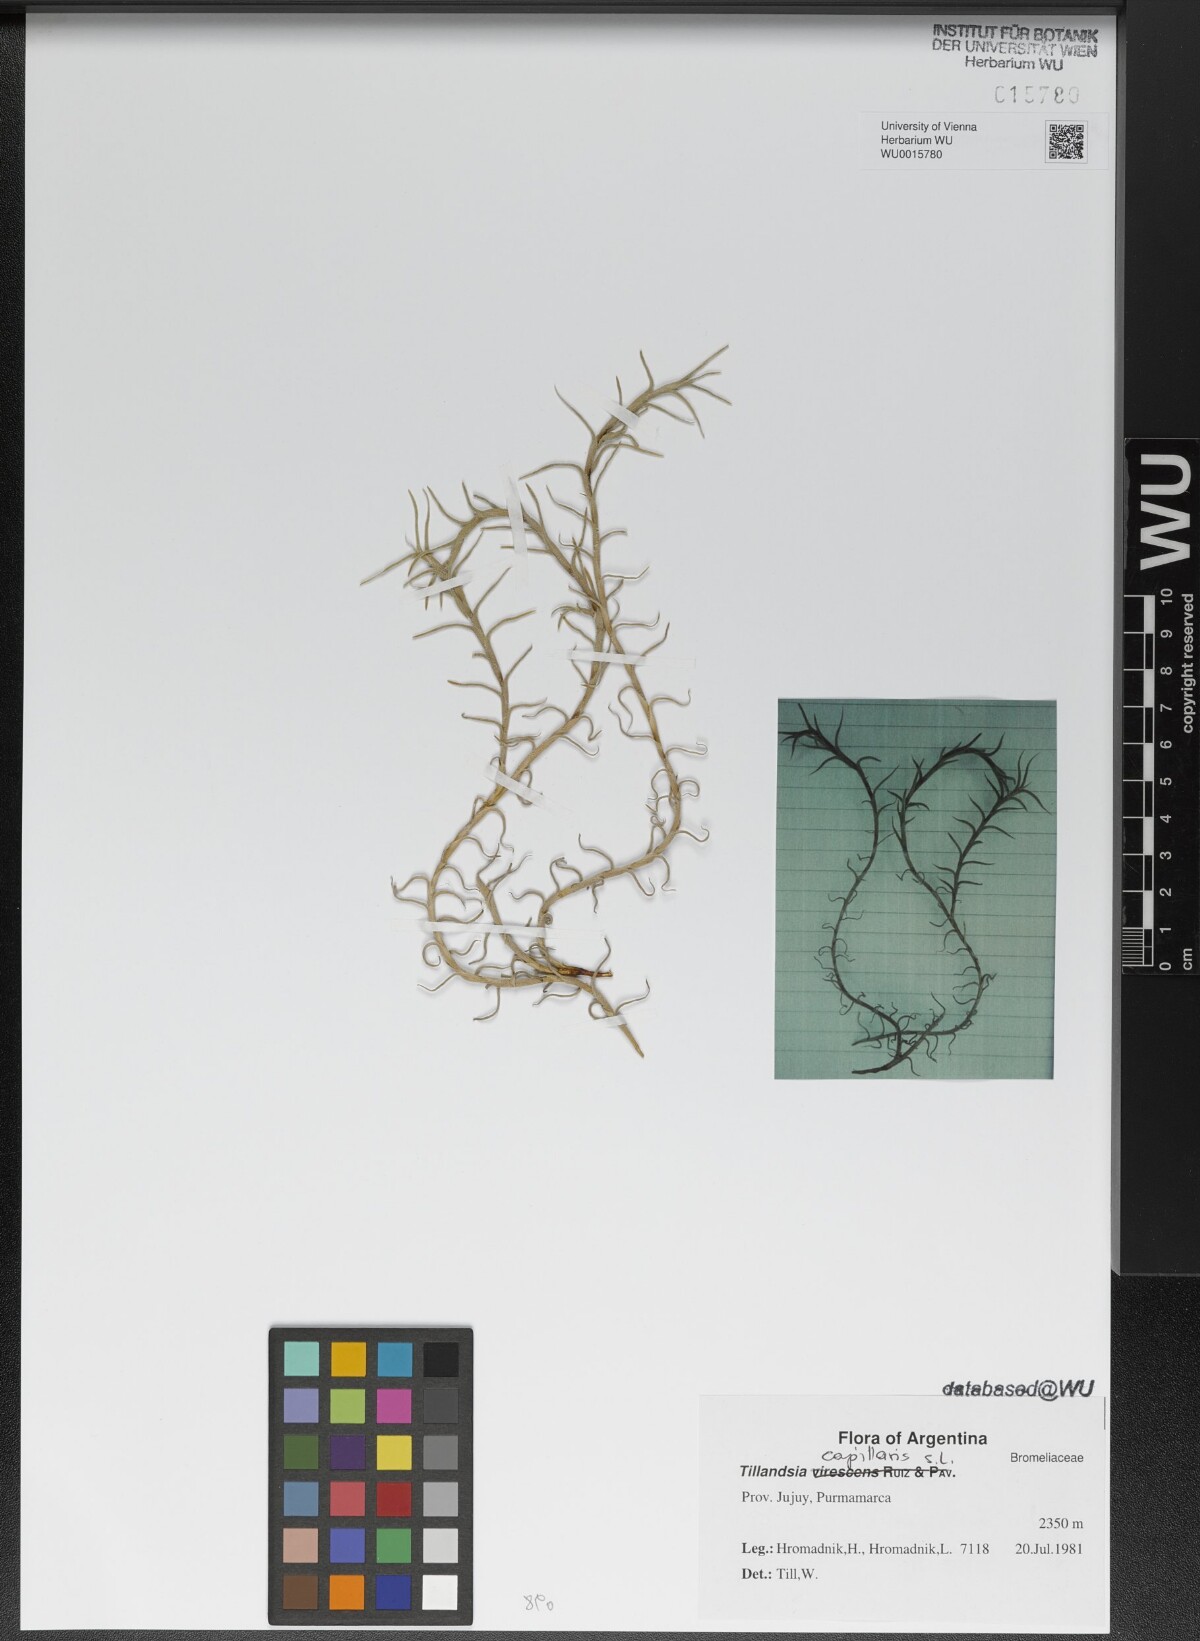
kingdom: Plantae
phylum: Tracheophyta
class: Liliopsida
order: Poales
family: Bromeliaceae
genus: Tillandsia
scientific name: Tillandsia capillaris
